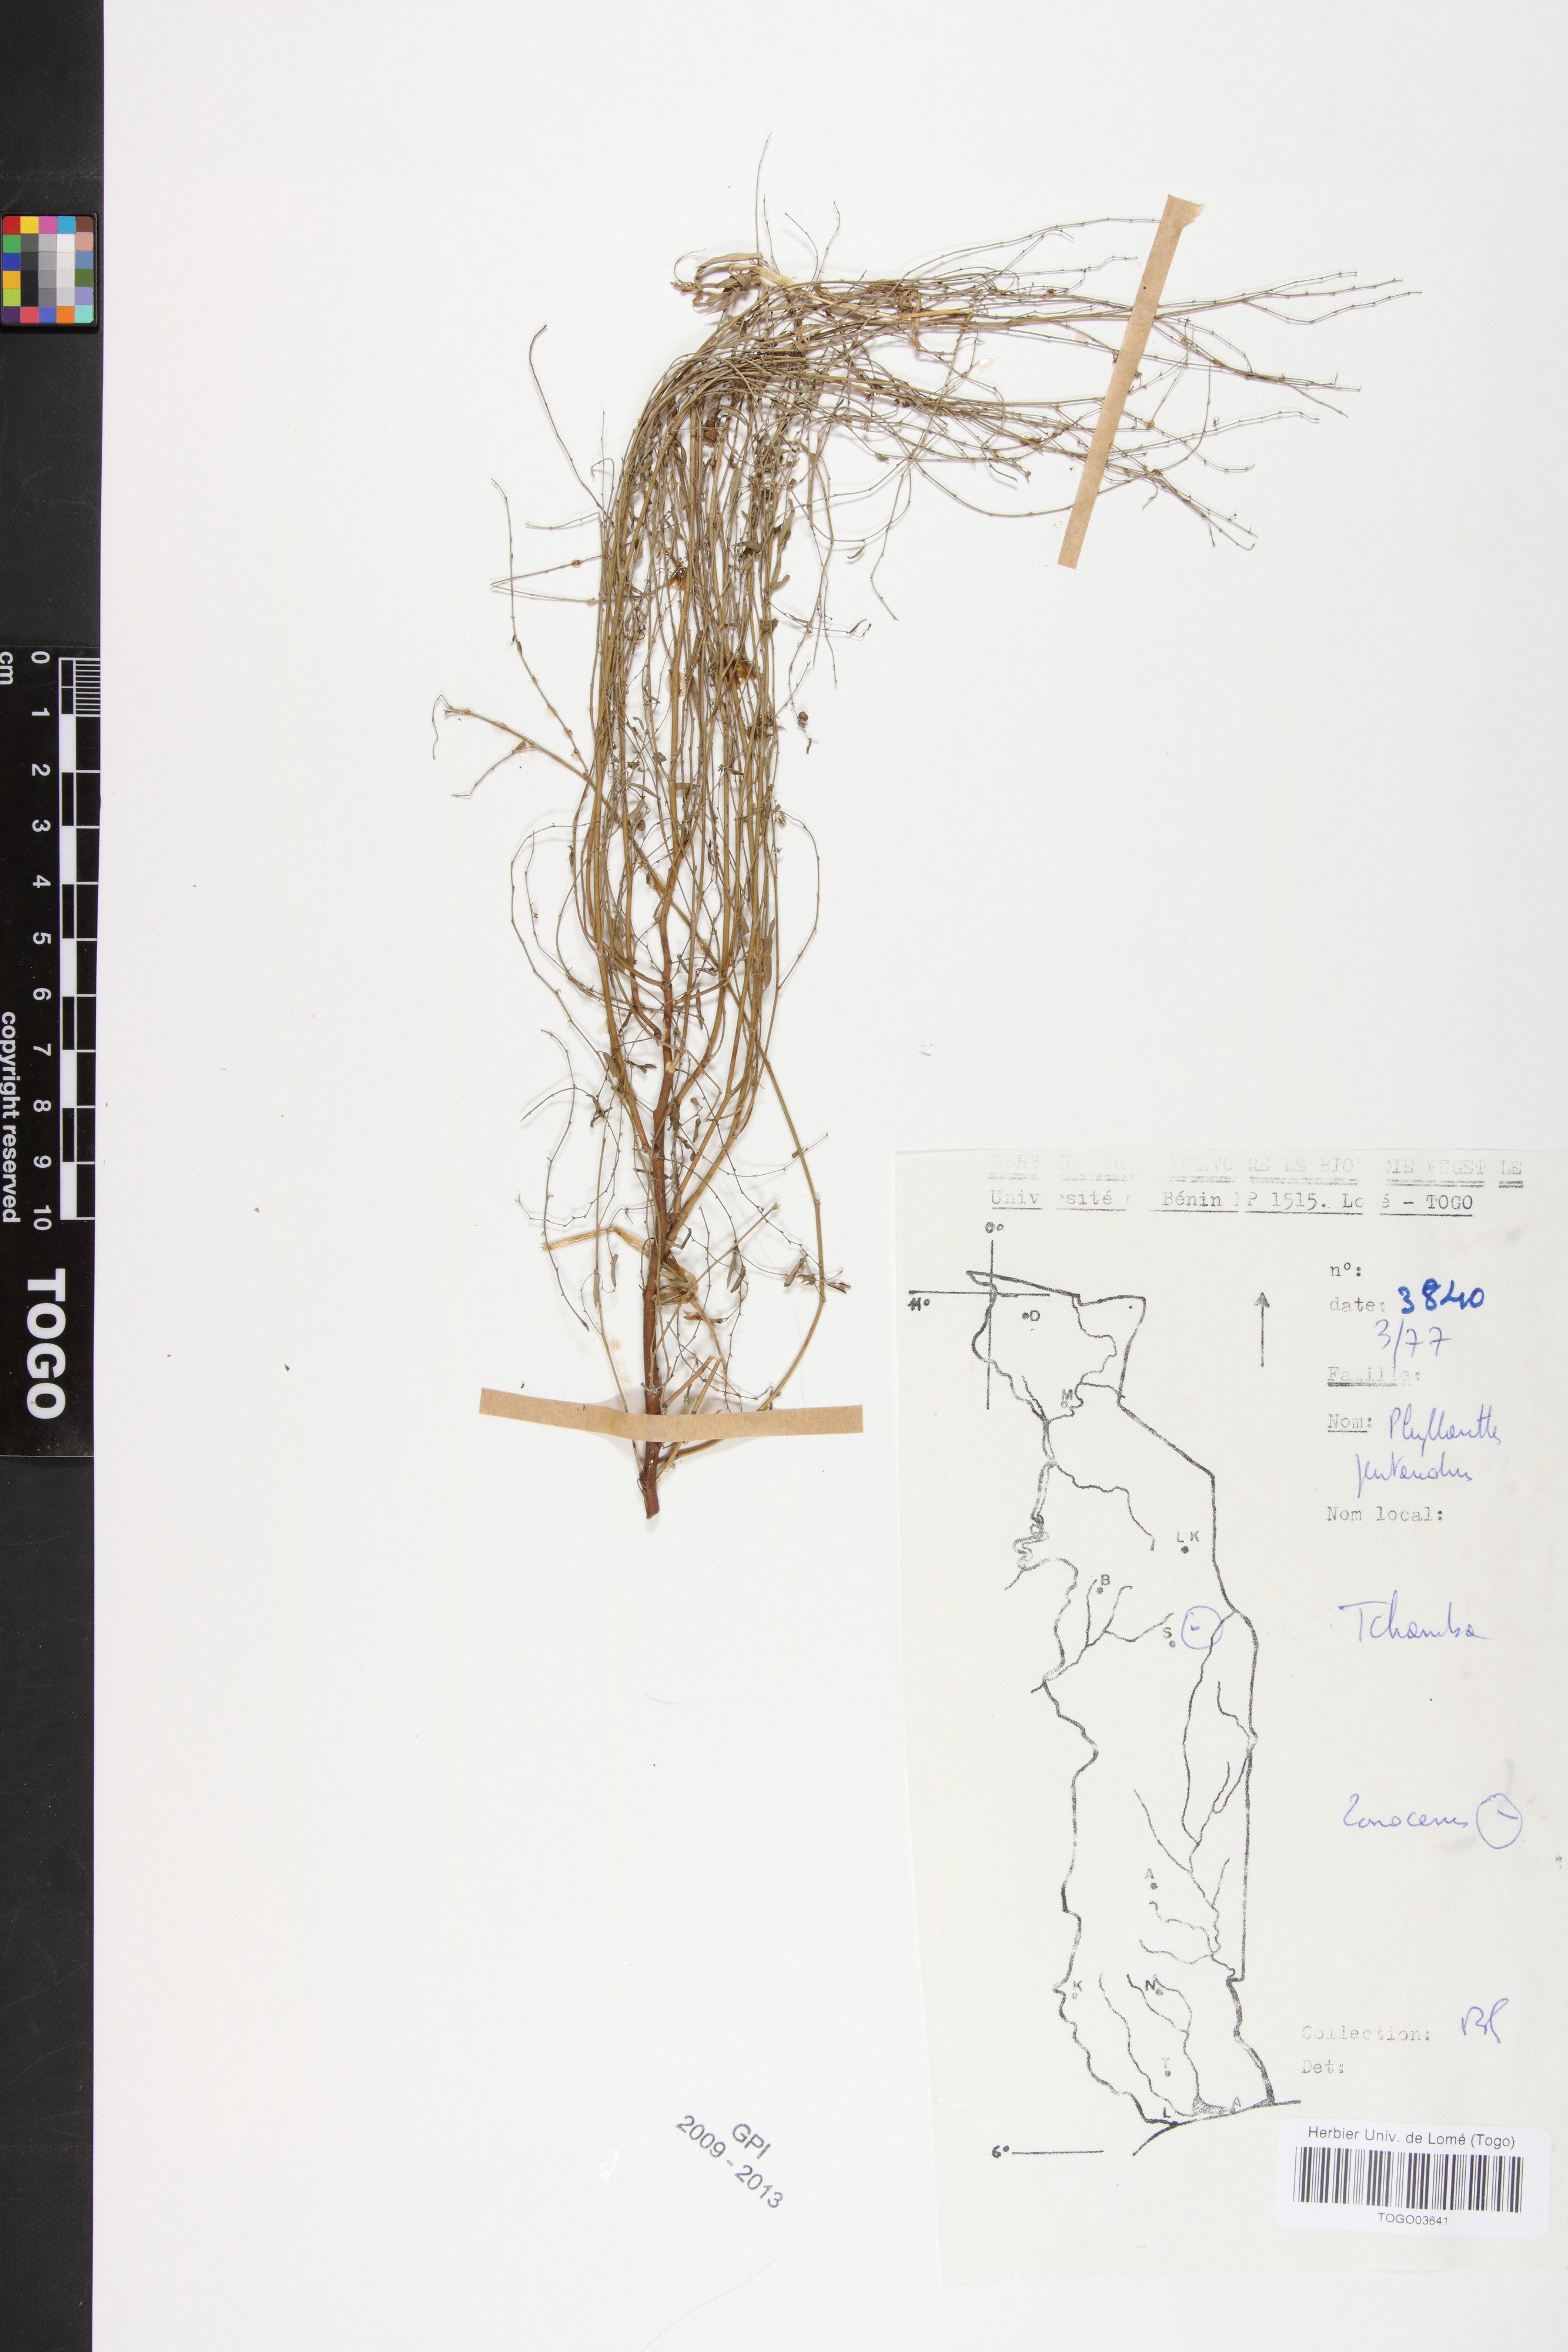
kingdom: Plantae
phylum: Tracheophyta
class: Magnoliopsida
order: Malpighiales
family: Phyllanthaceae
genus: Phyllanthus
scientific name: Phyllanthus pentandrus
